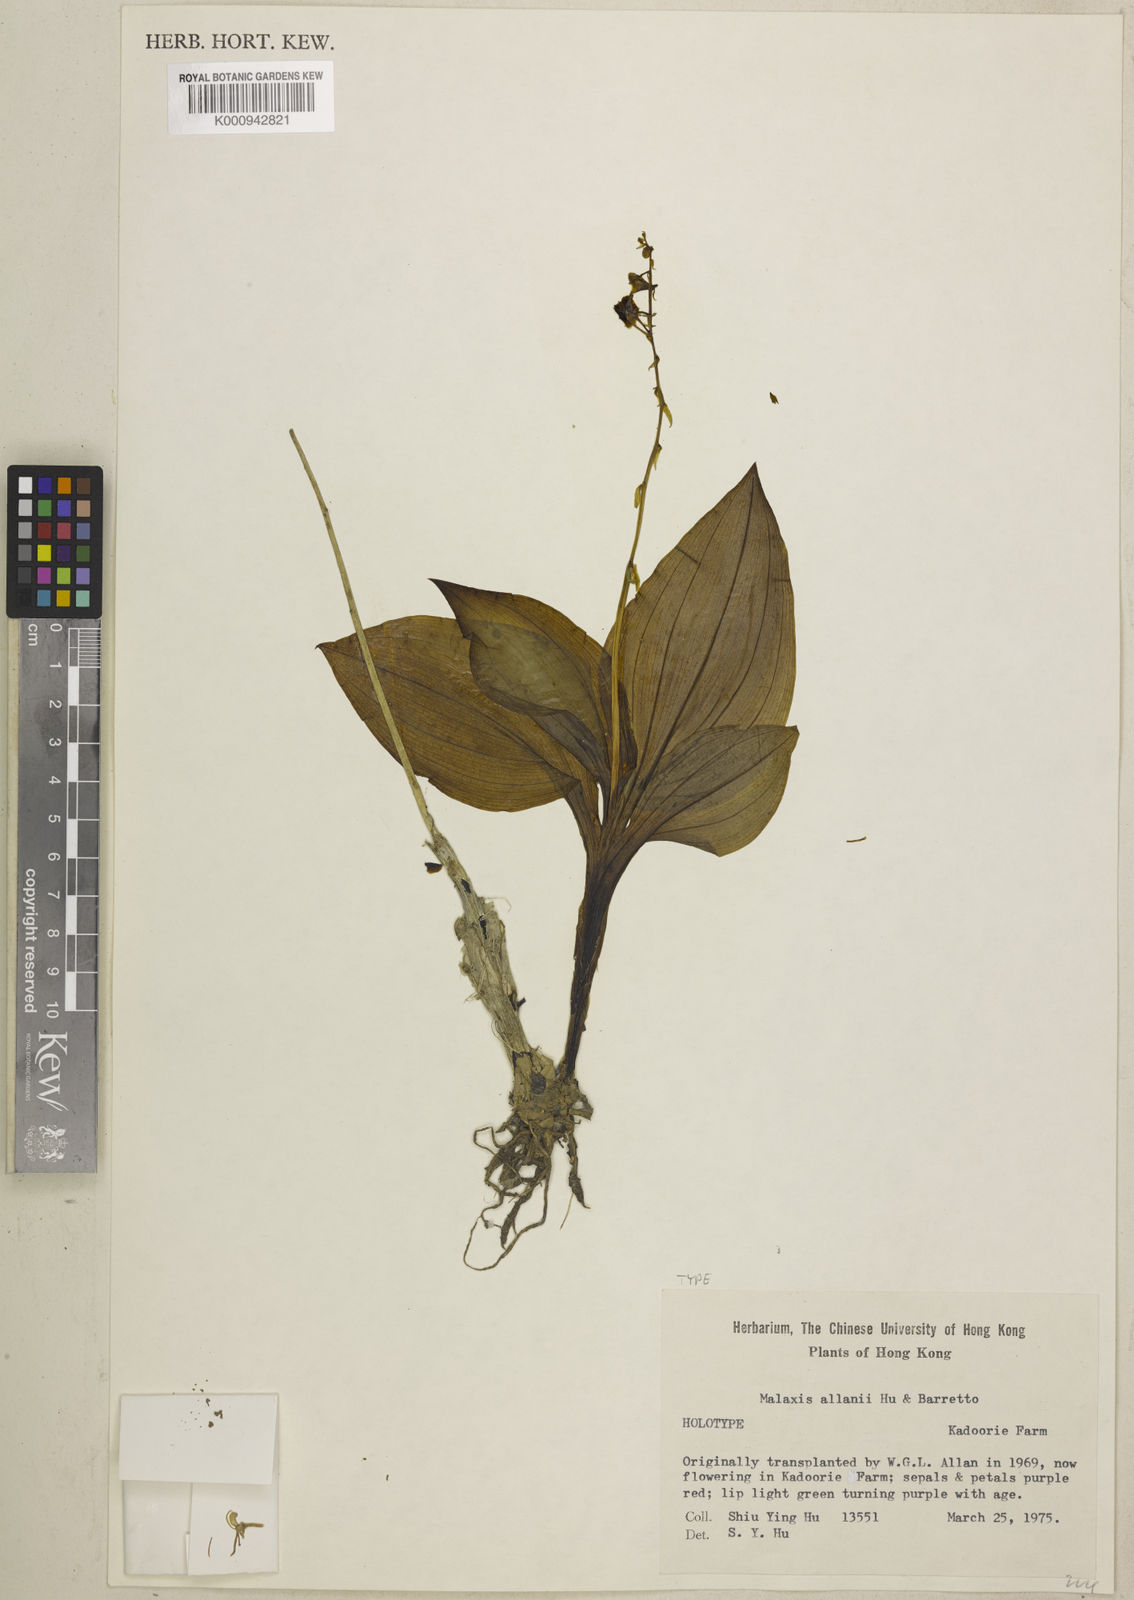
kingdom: Plantae
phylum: Tracheophyta
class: Liliopsida
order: Asparagales
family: Orchidaceae
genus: Crepidium
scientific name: Crepidium
